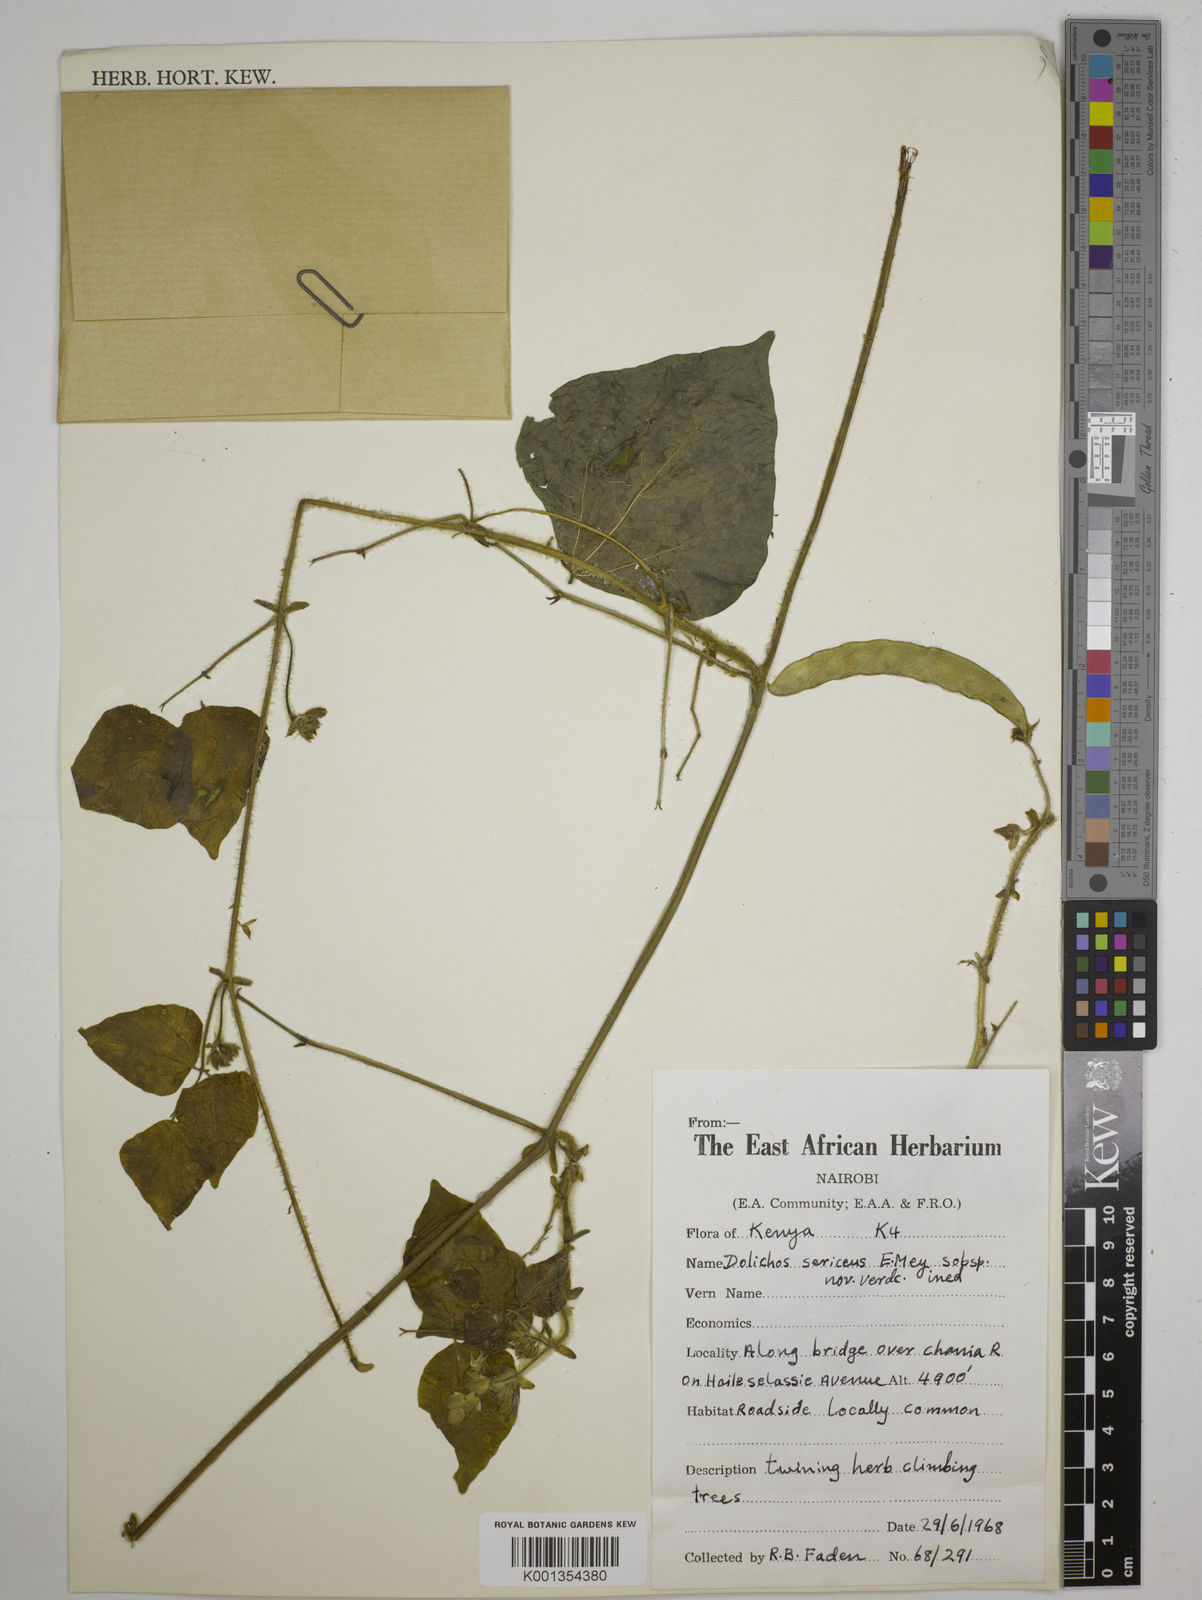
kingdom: Plantae
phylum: Tracheophyta
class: Magnoliopsida
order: Fabales
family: Fabaceae
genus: Dolichos
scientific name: Dolichos sericeus
